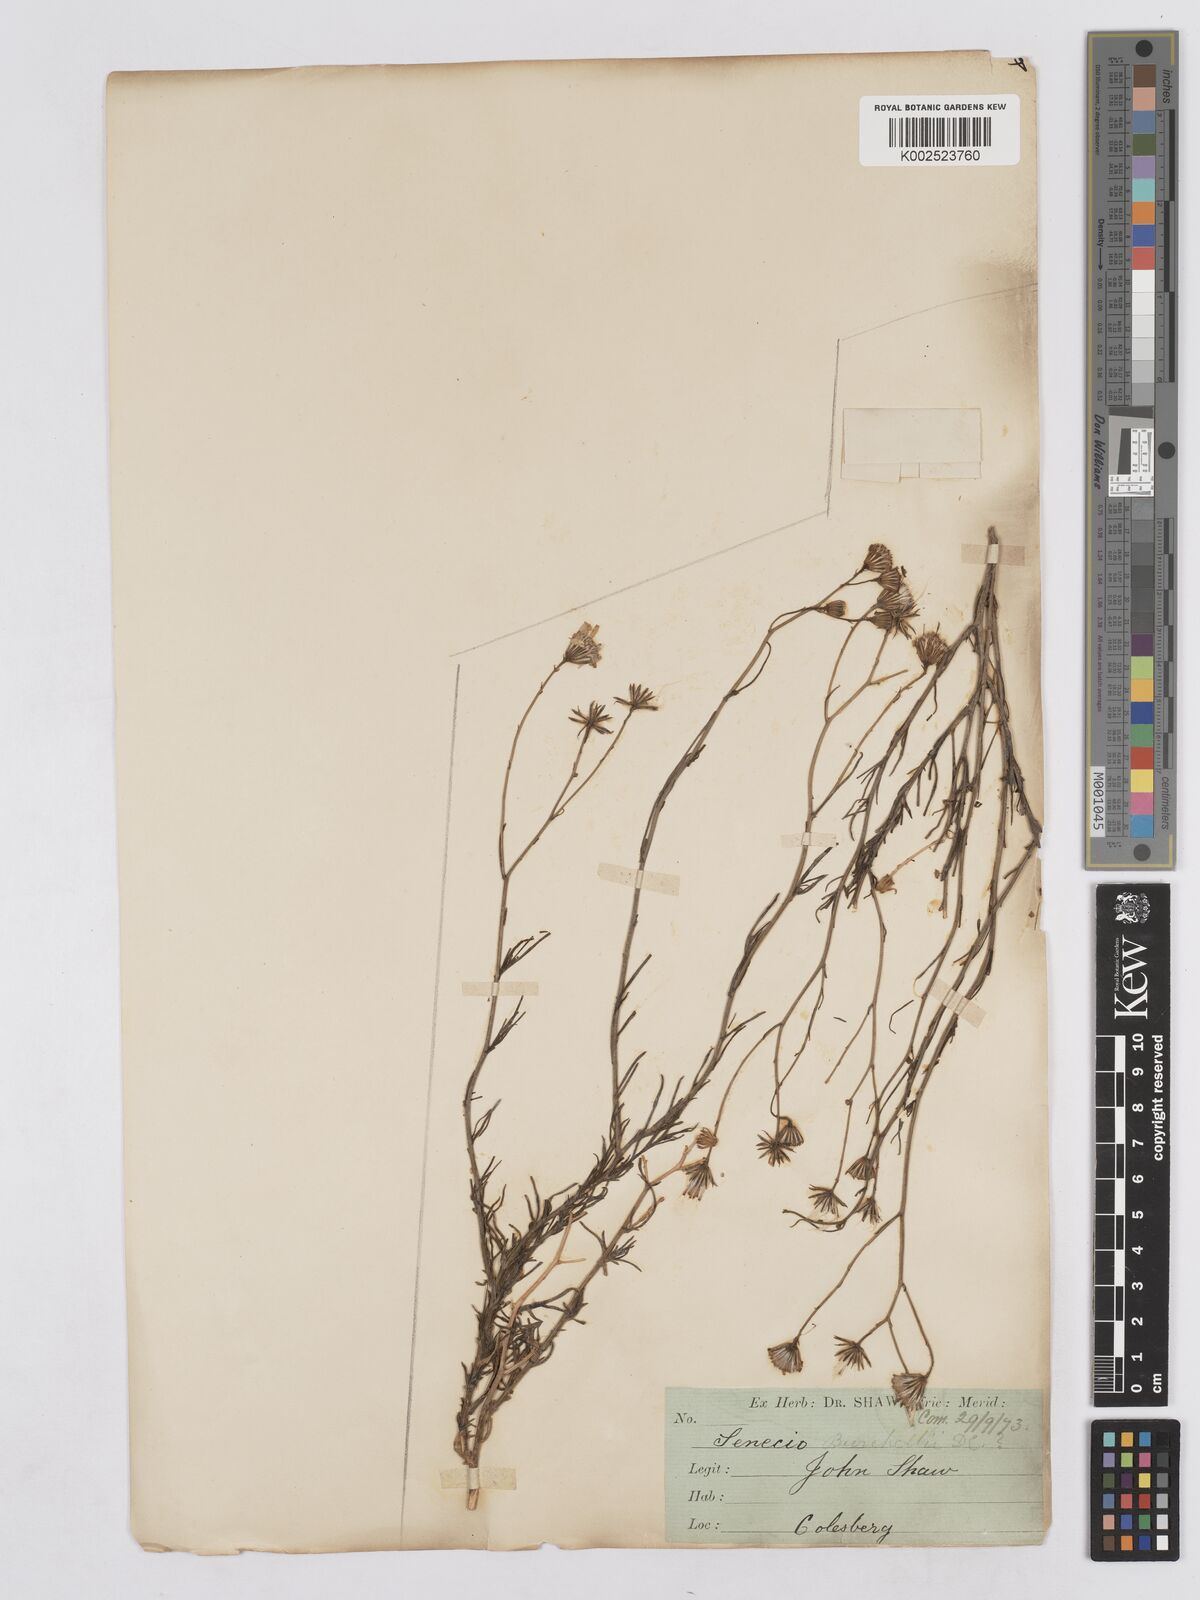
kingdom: Plantae
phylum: Tracheophyta
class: Magnoliopsida
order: Asterales
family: Asteraceae
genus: Senecio
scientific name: Senecio burchellii
